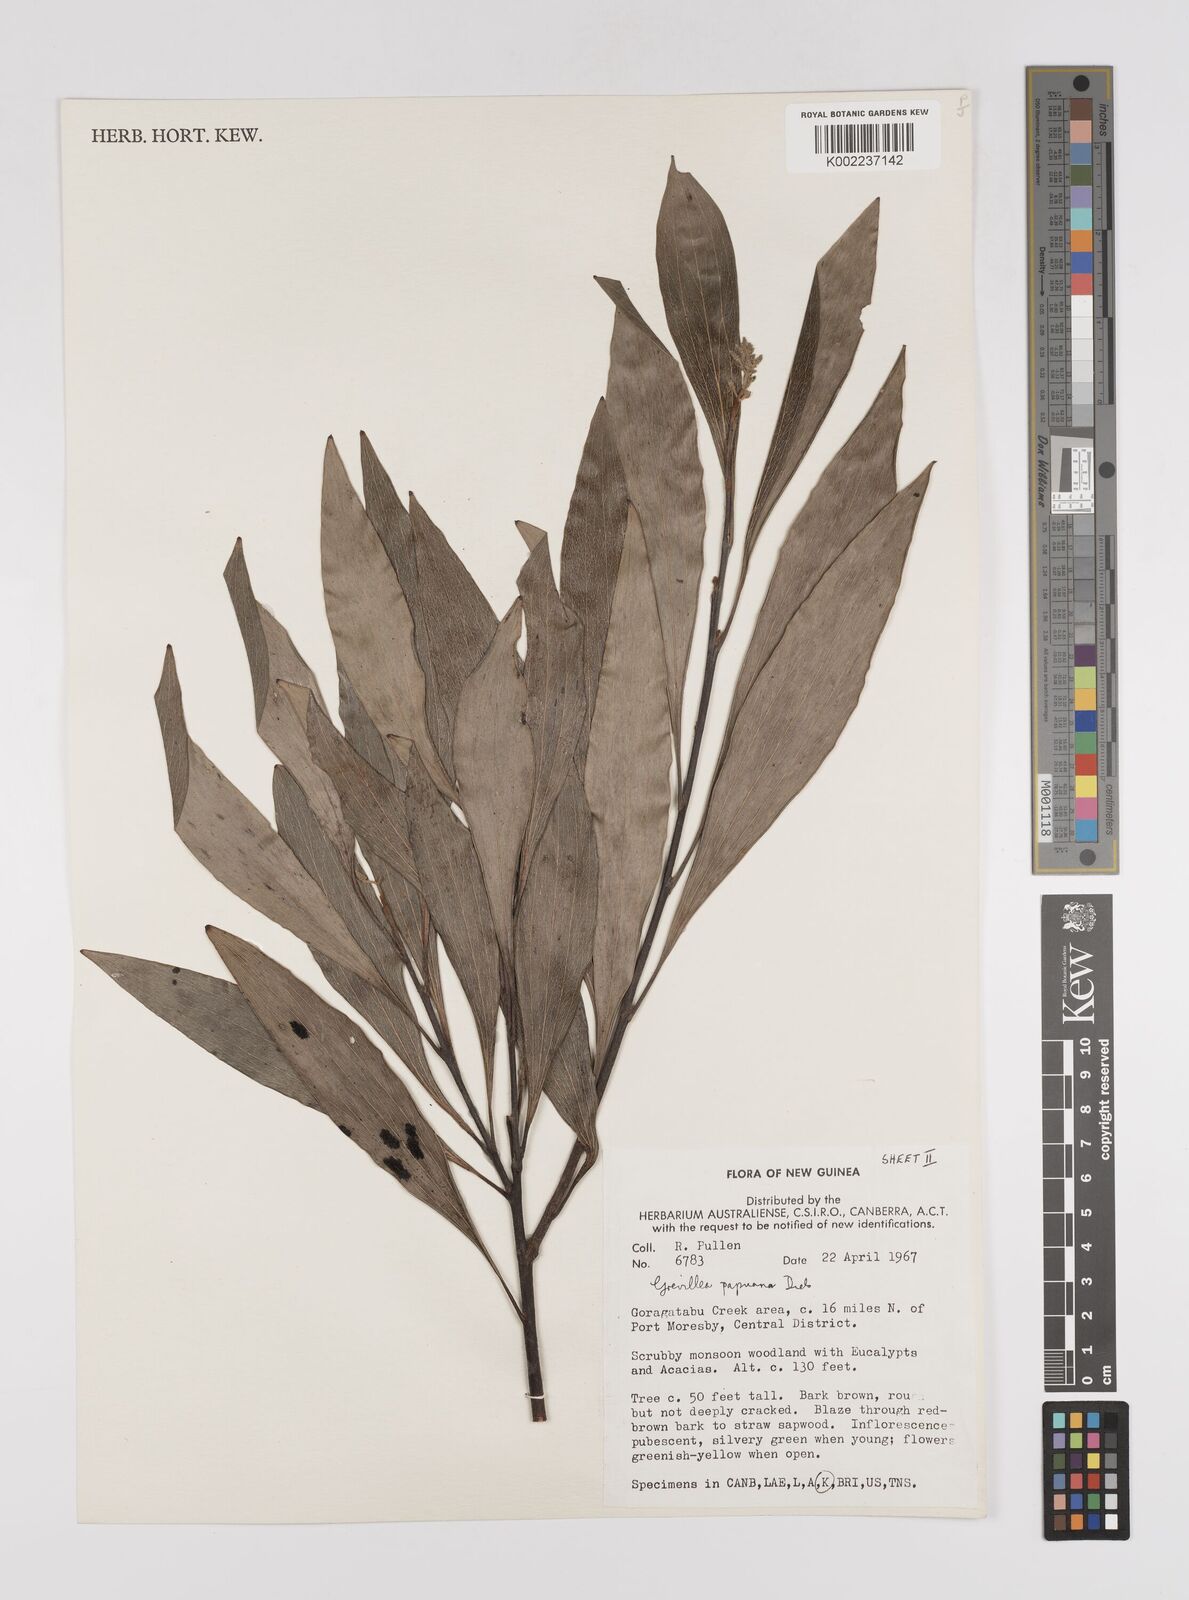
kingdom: Plantae
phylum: Tracheophyta
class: Magnoliopsida
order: Proteales
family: Proteaceae
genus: Grevillea
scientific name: Grevillea papuana
